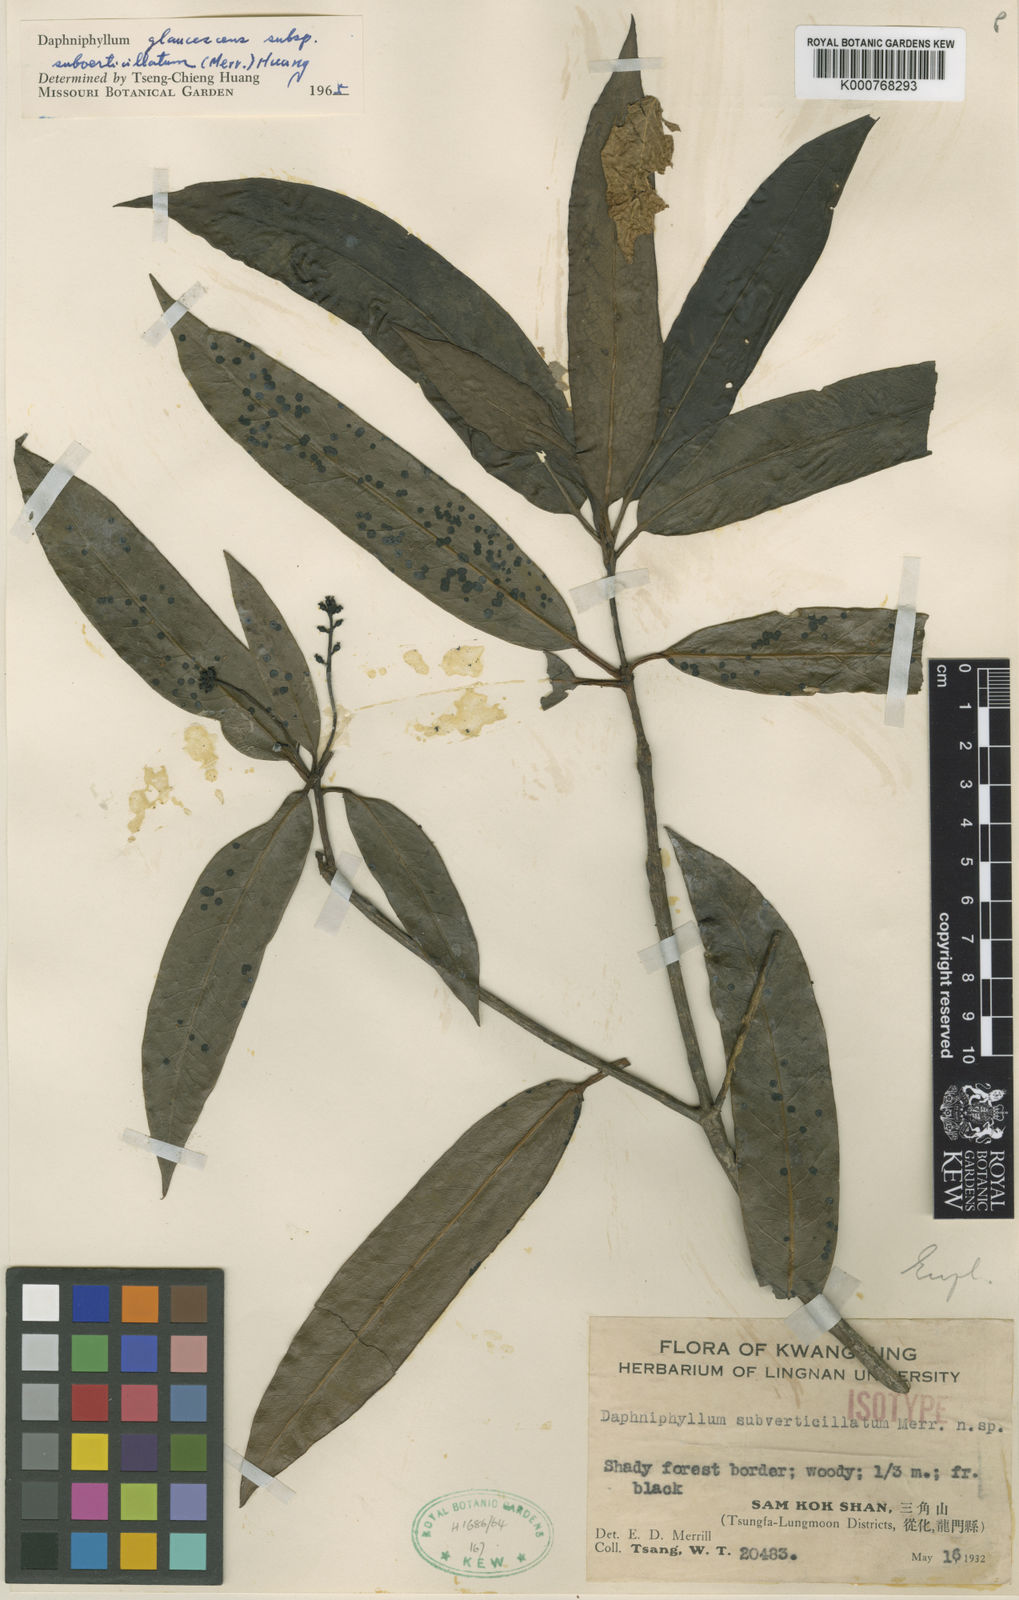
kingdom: Plantae
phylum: Tracheophyta
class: Magnoliopsida
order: Saxifragales
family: Daphniphyllaceae
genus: Daphniphyllum
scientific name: Daphniphyllum subverticillatum
